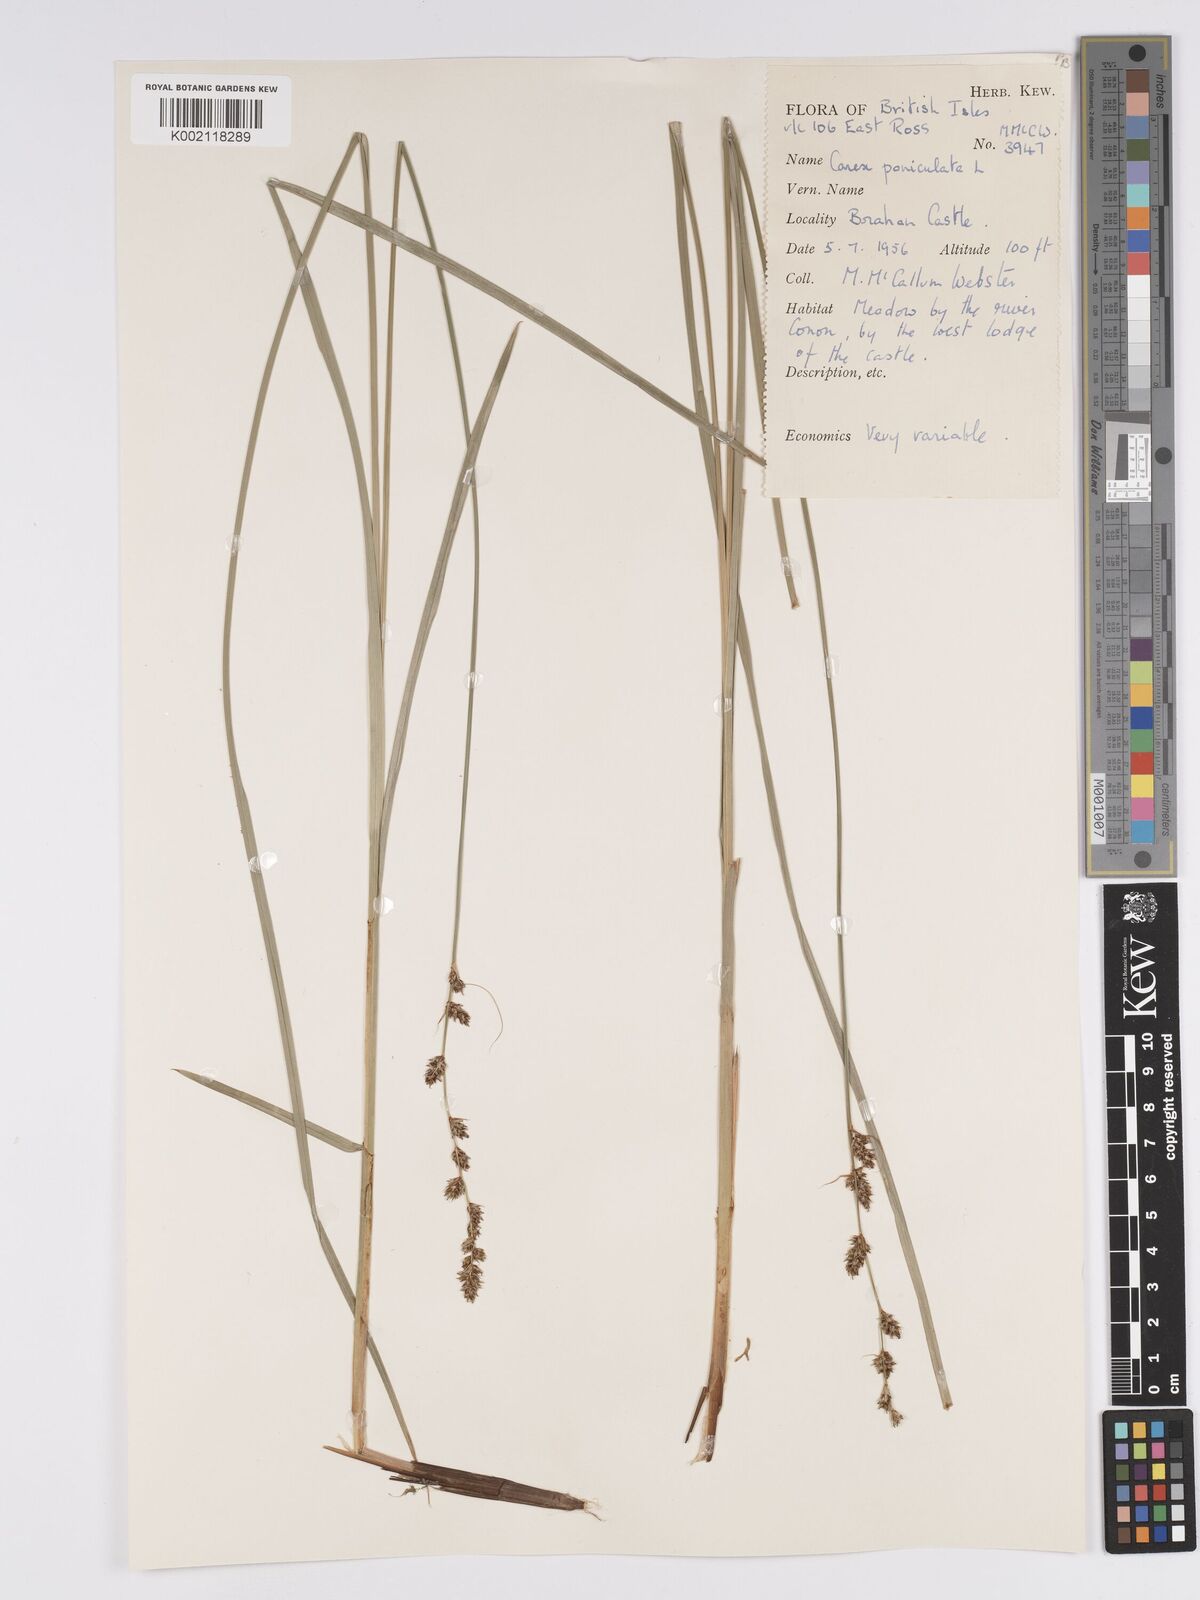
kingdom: Plantae
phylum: Tracheophyta
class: Liliopsida
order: Poales
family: Cyperaceae
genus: Carex
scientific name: Carex paniculata
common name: Greater tussock-sedge
